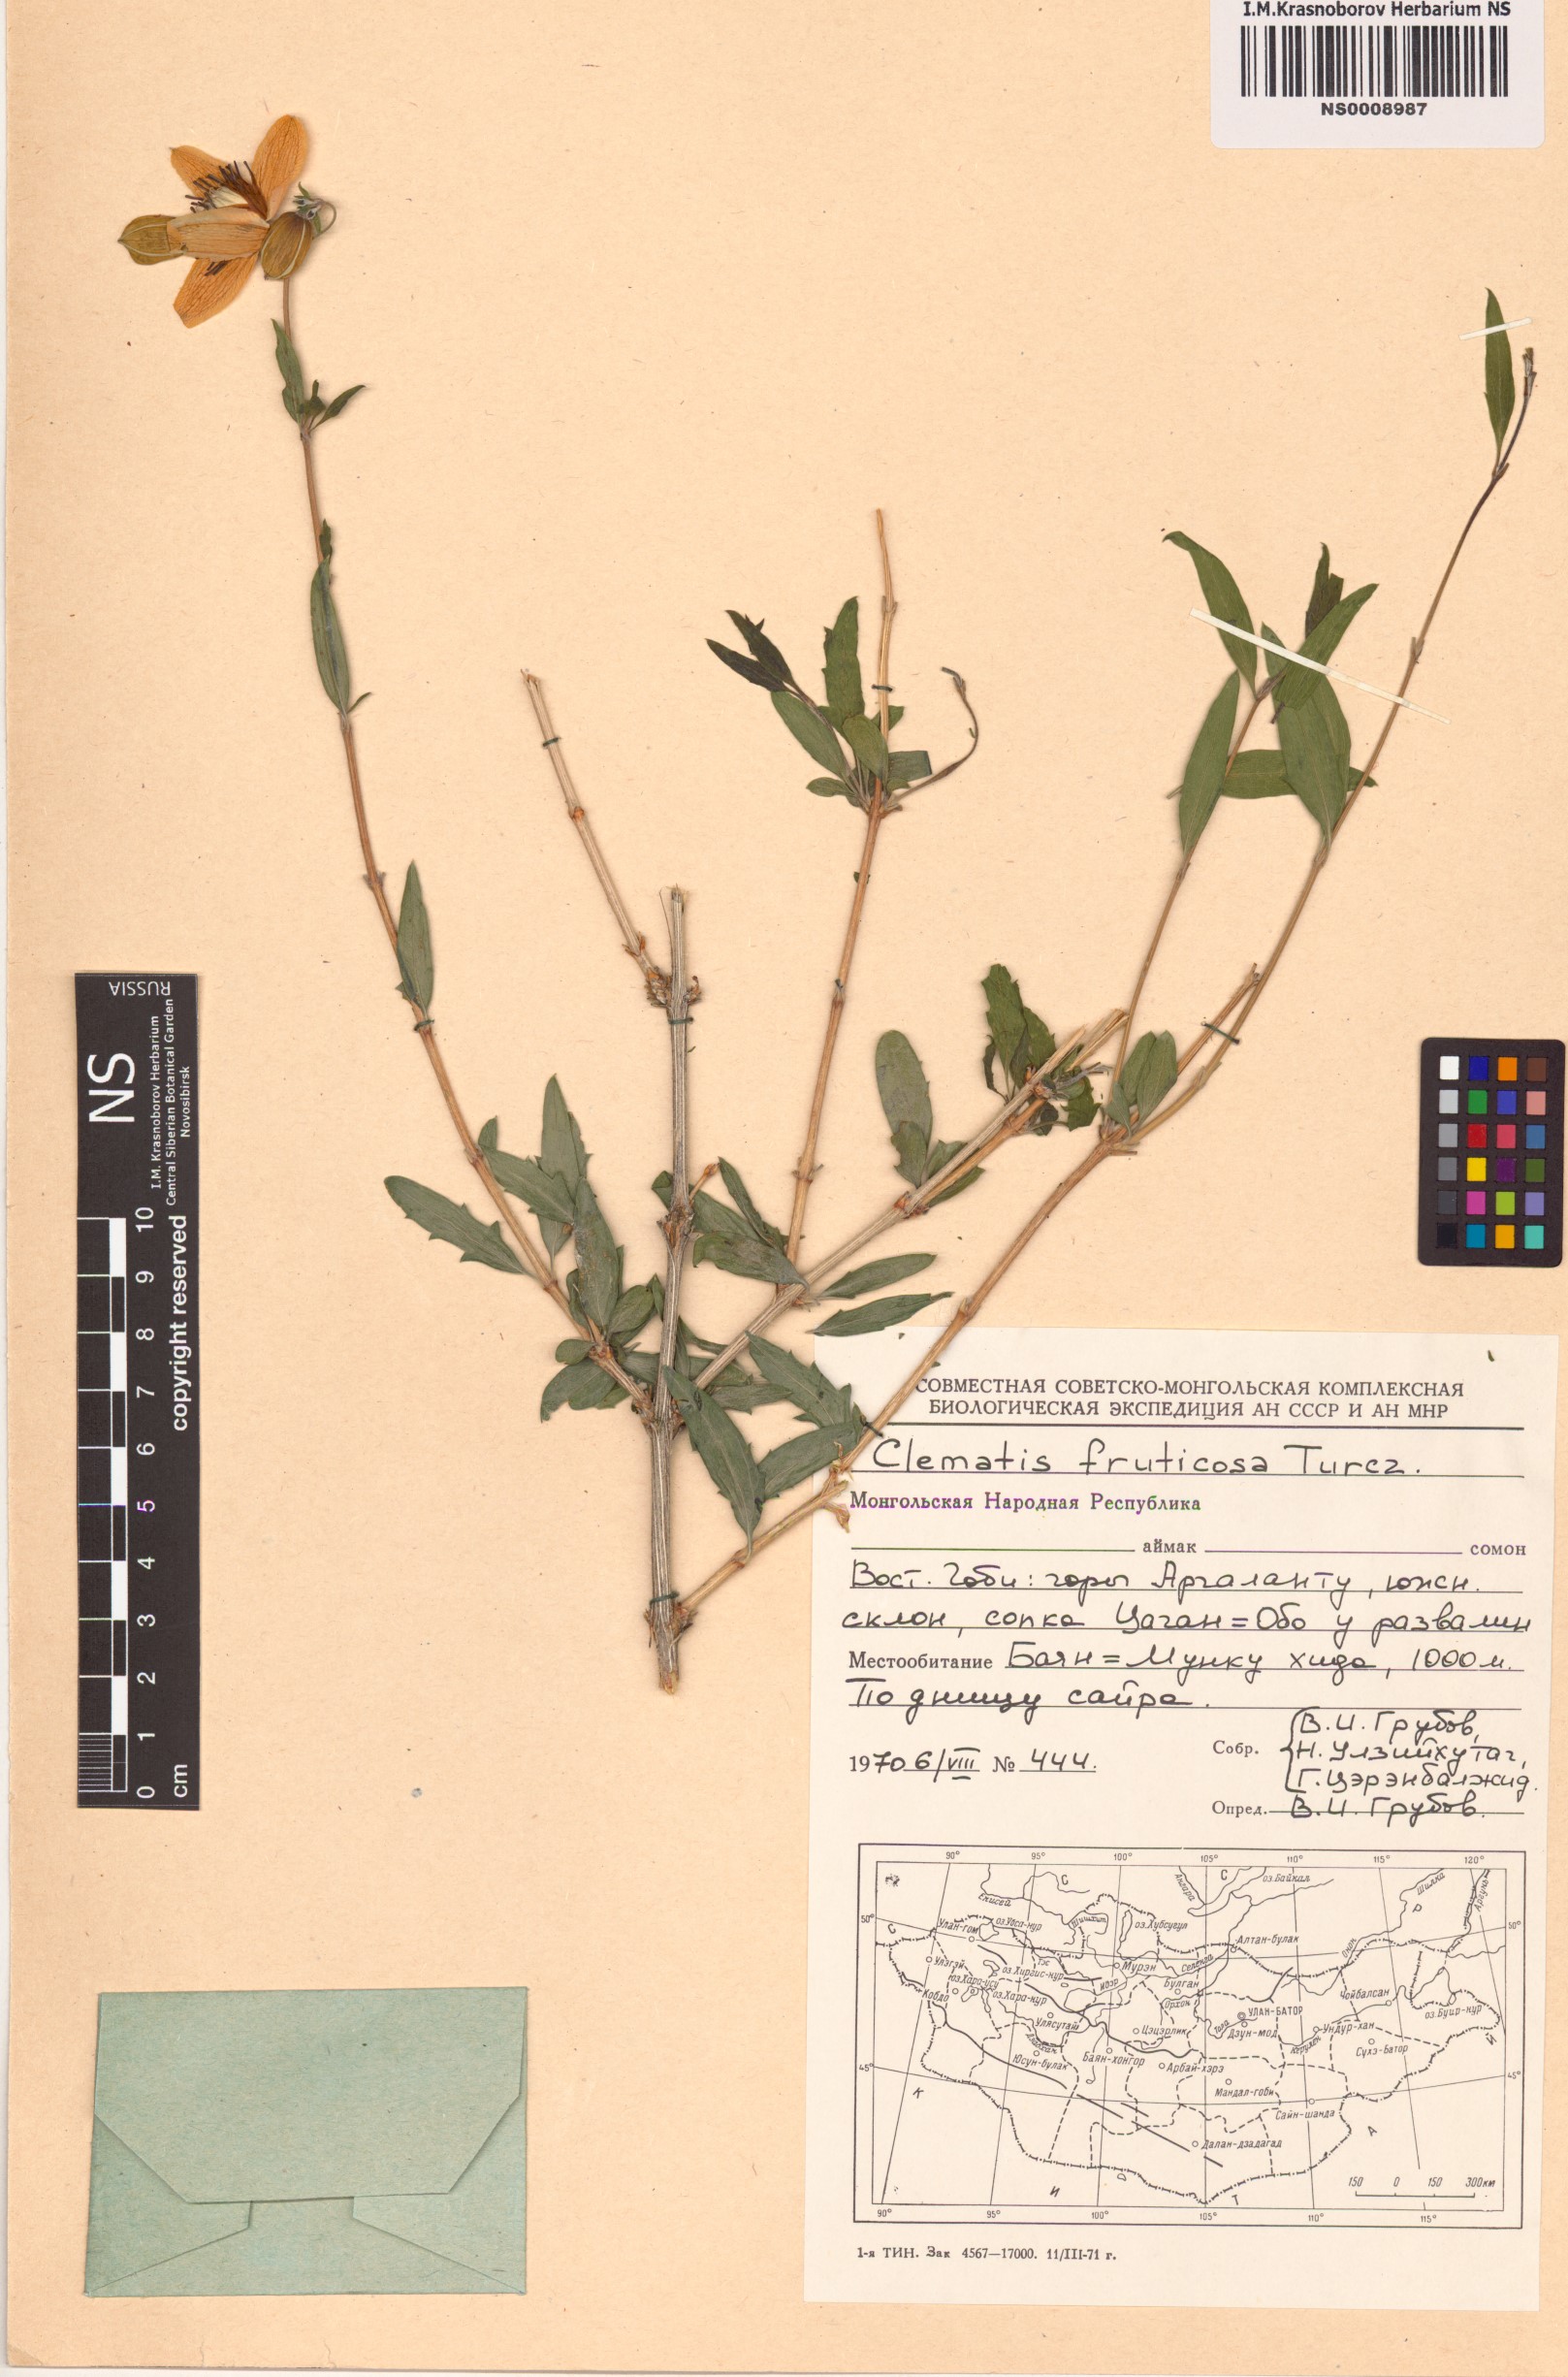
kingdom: Plantae
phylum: Tracheophyta
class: Magnoliopsida
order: Ranunculales
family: Ranunculaceae
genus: Clematis
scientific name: Clematis fruticosa
